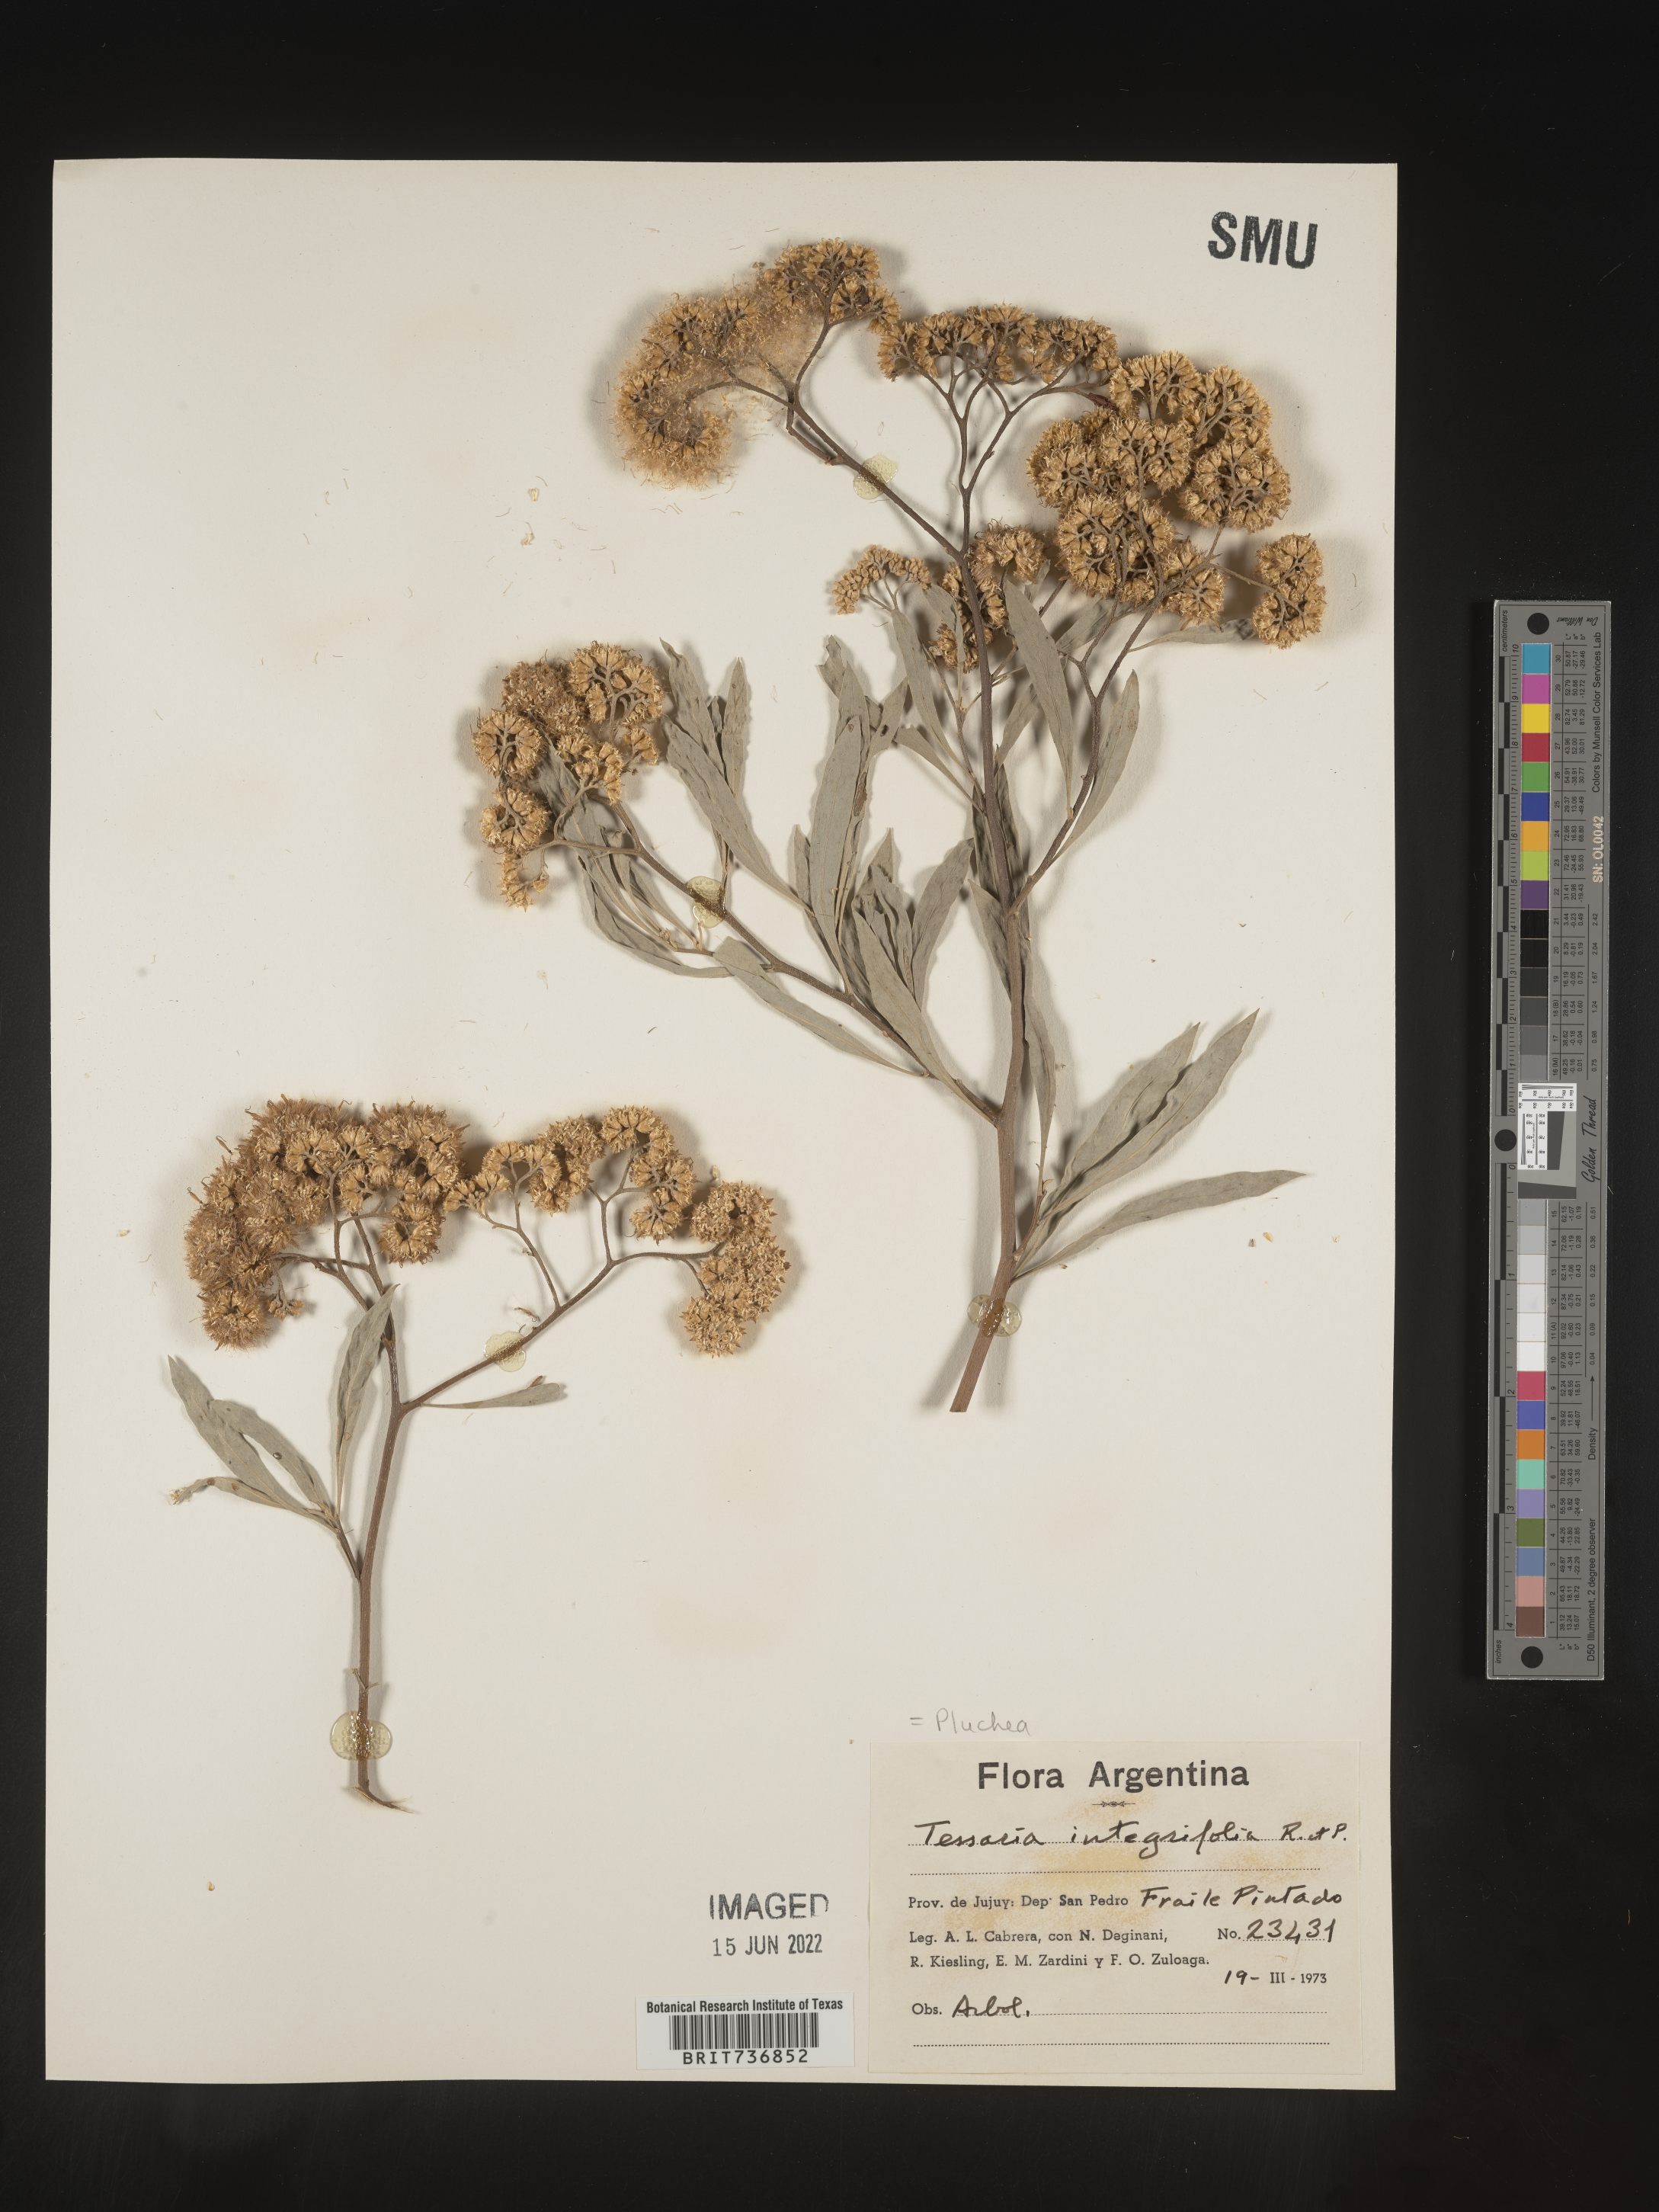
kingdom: Plantae
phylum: Tracheophyta
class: Magnoliopsida
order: Asterales
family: Asteraceae
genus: Pluchea
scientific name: Pluchea
